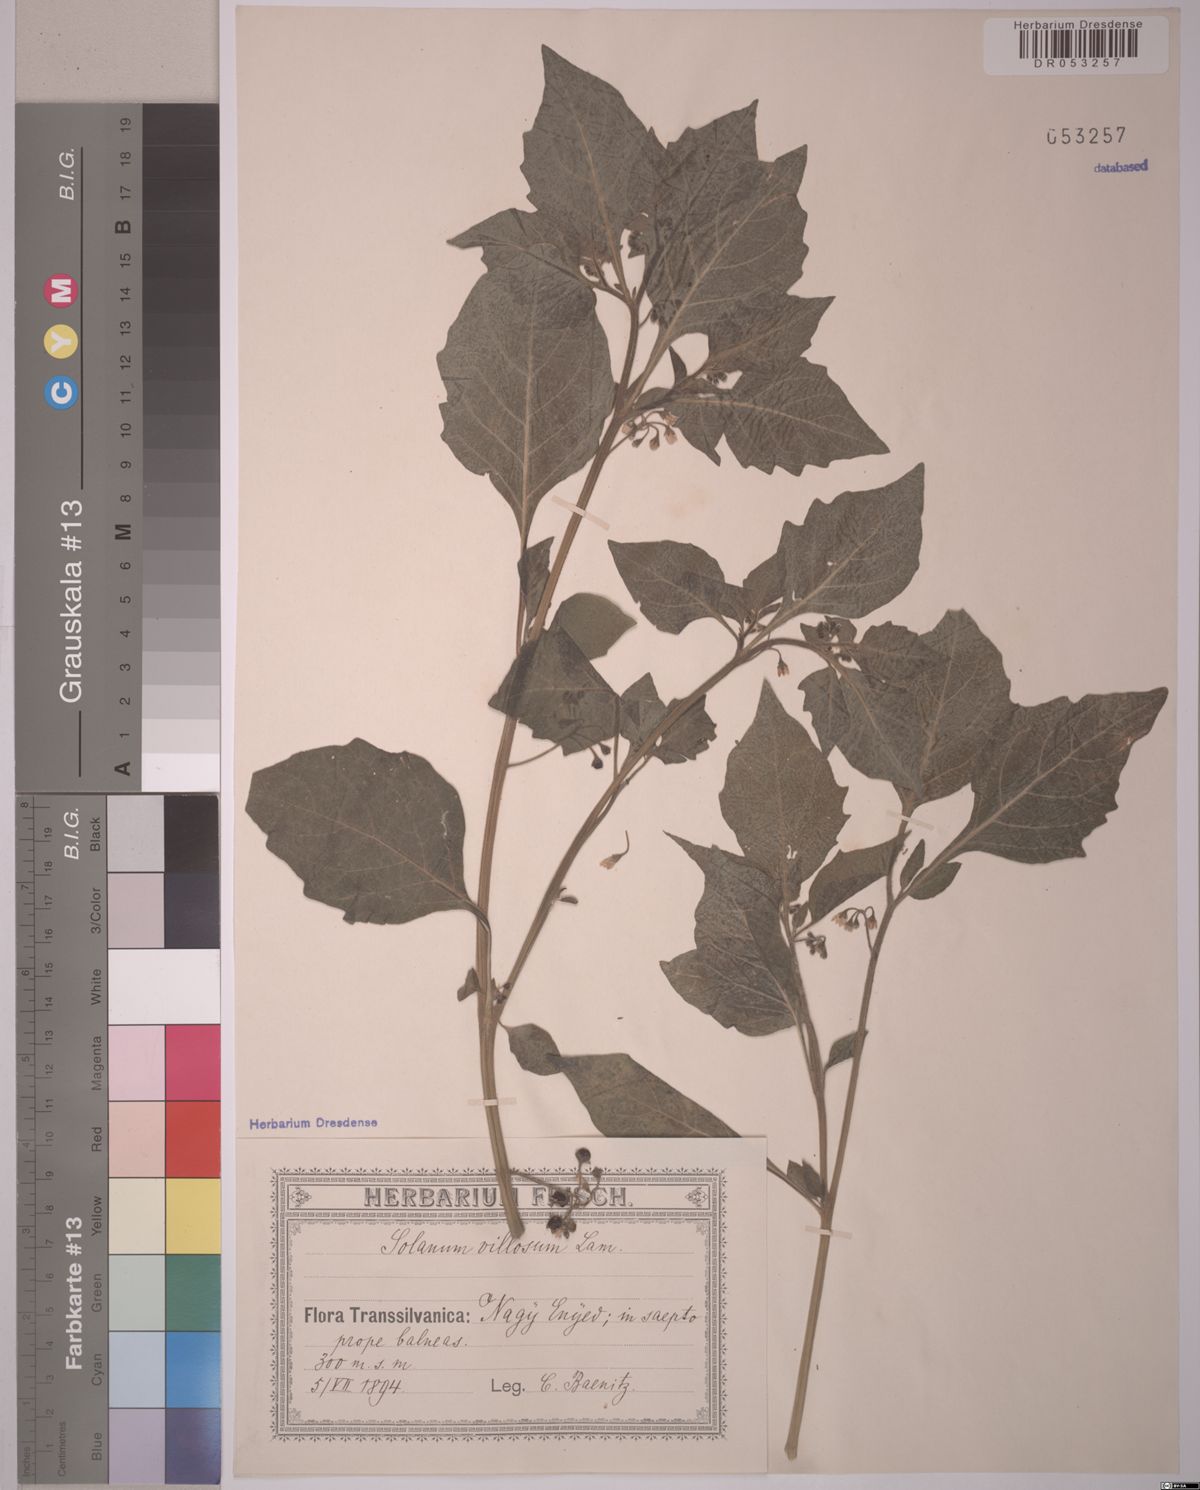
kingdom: Plantae
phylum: Tracheophyta
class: Magnoliopsida
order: Solanales
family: Solanaceae
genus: Solanum
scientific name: Solanum villosum
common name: Red nightshade
